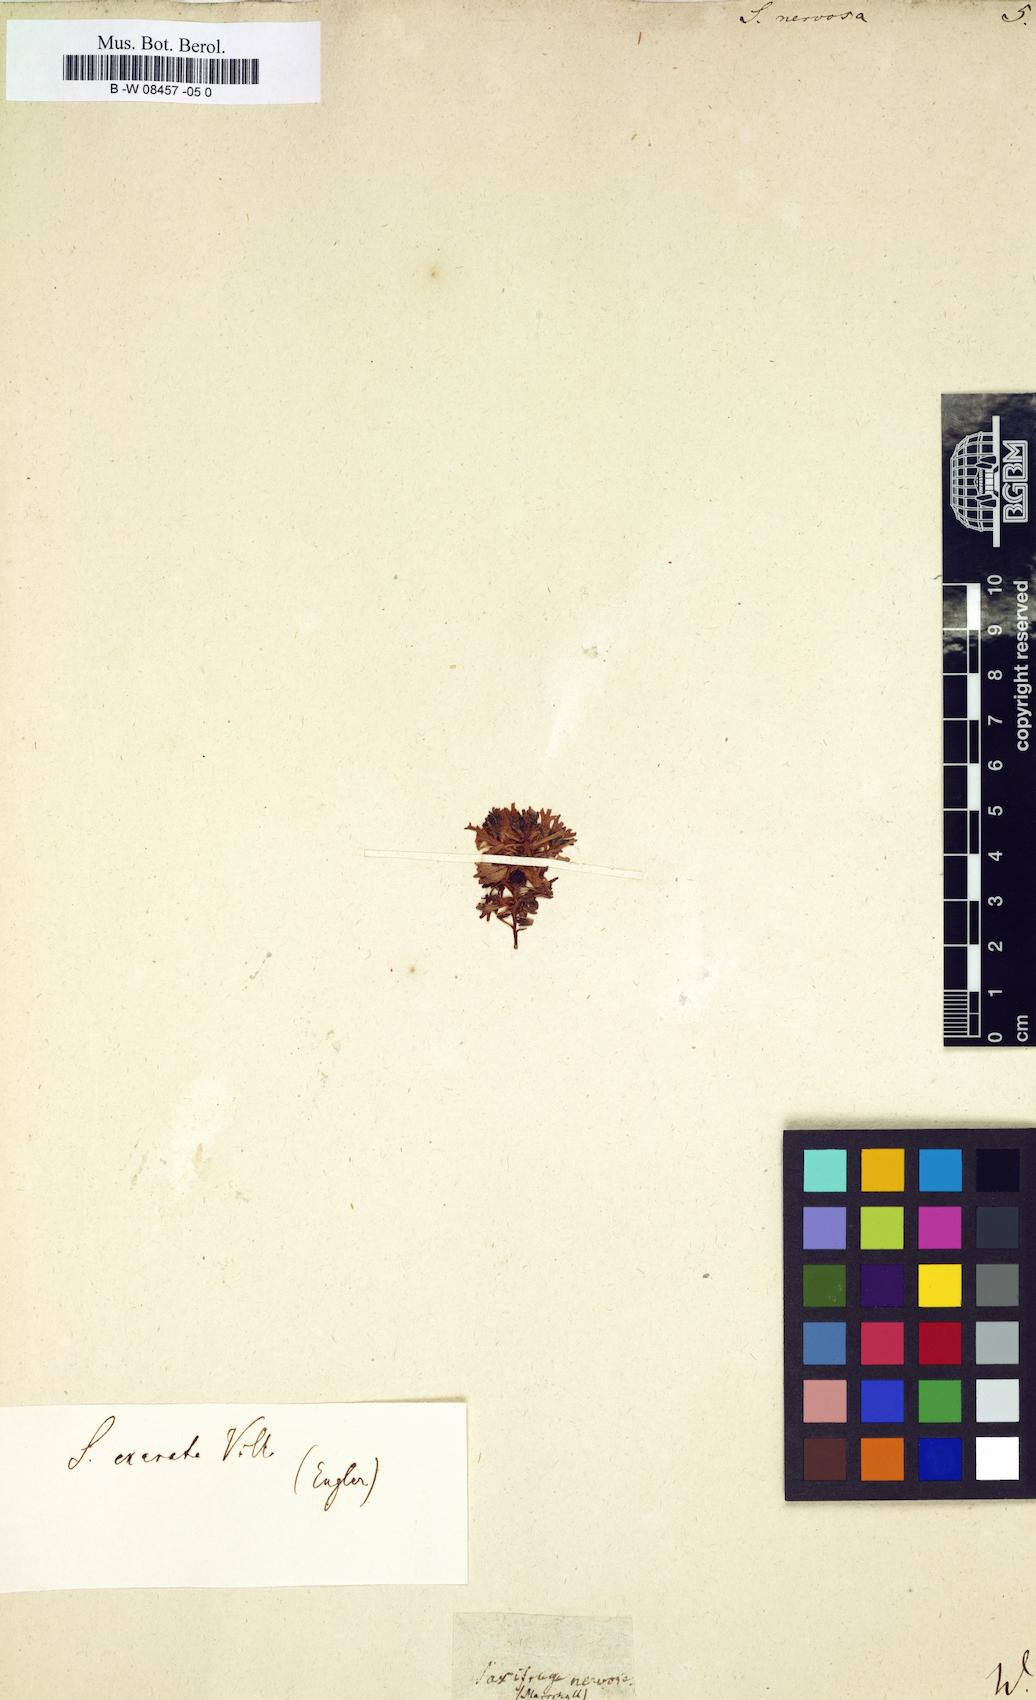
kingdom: Plantae
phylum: Tracheophyta
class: Magnoliopsida
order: Saxifragales
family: Saxifragaceae
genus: Saxifraga
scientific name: Saxifraga
